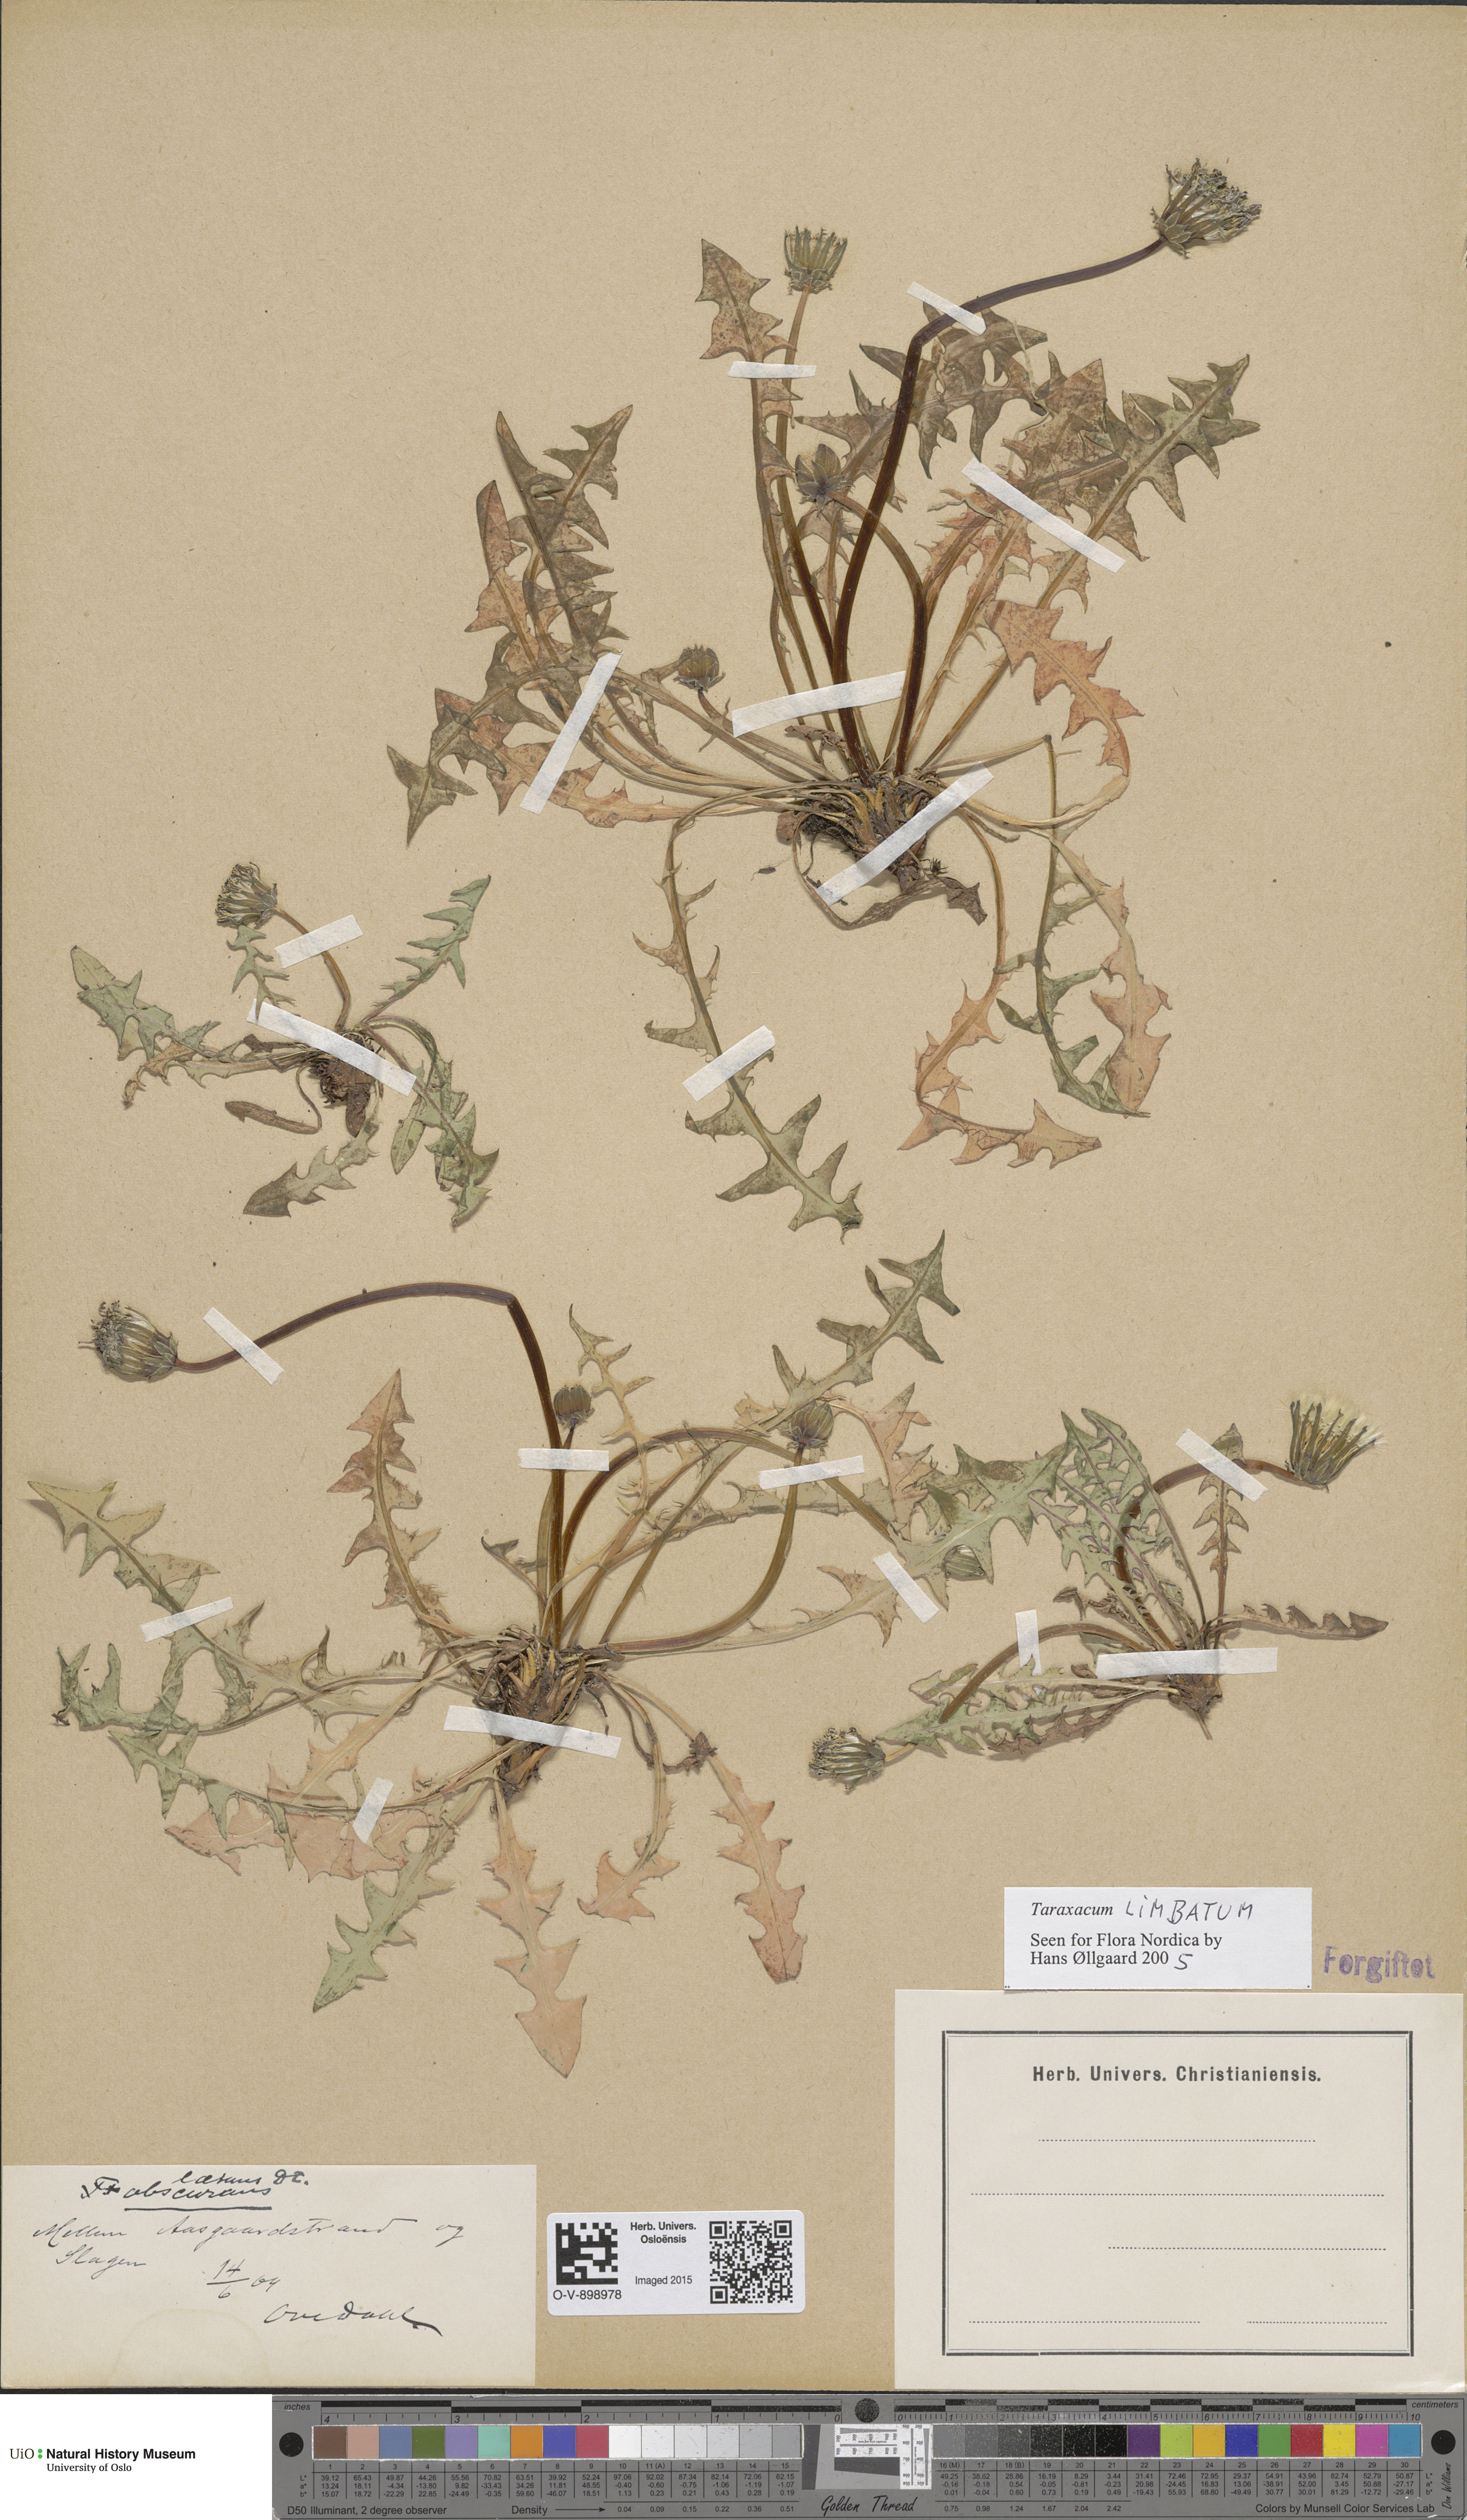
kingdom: Plantae
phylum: Tracheophyta
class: Magnoliopsida
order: Asterales
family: Asteraceae
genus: Taraxacum
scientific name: Taraxacum limbatum
